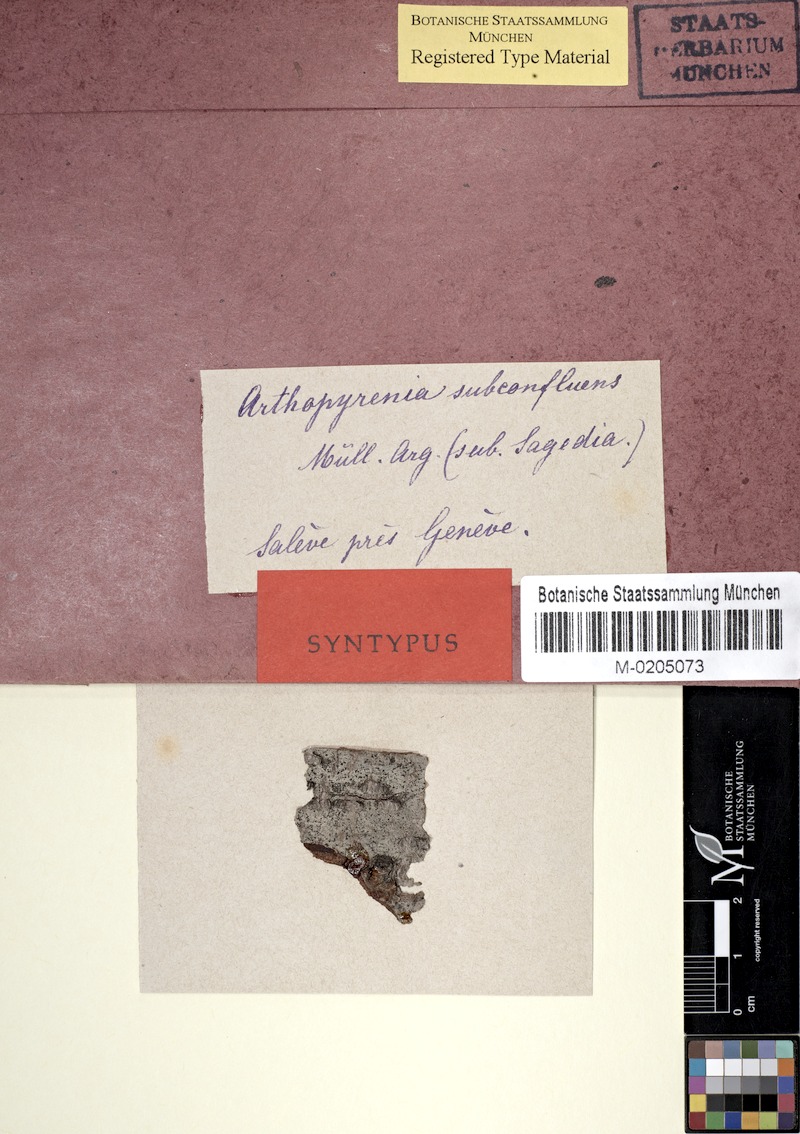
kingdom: Fungi
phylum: Ascomycota
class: Dothideomycetes
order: Pleosporales
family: Arthopyreniaceae
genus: Arthopyrenia
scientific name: Arthopyrenia subconfluens
